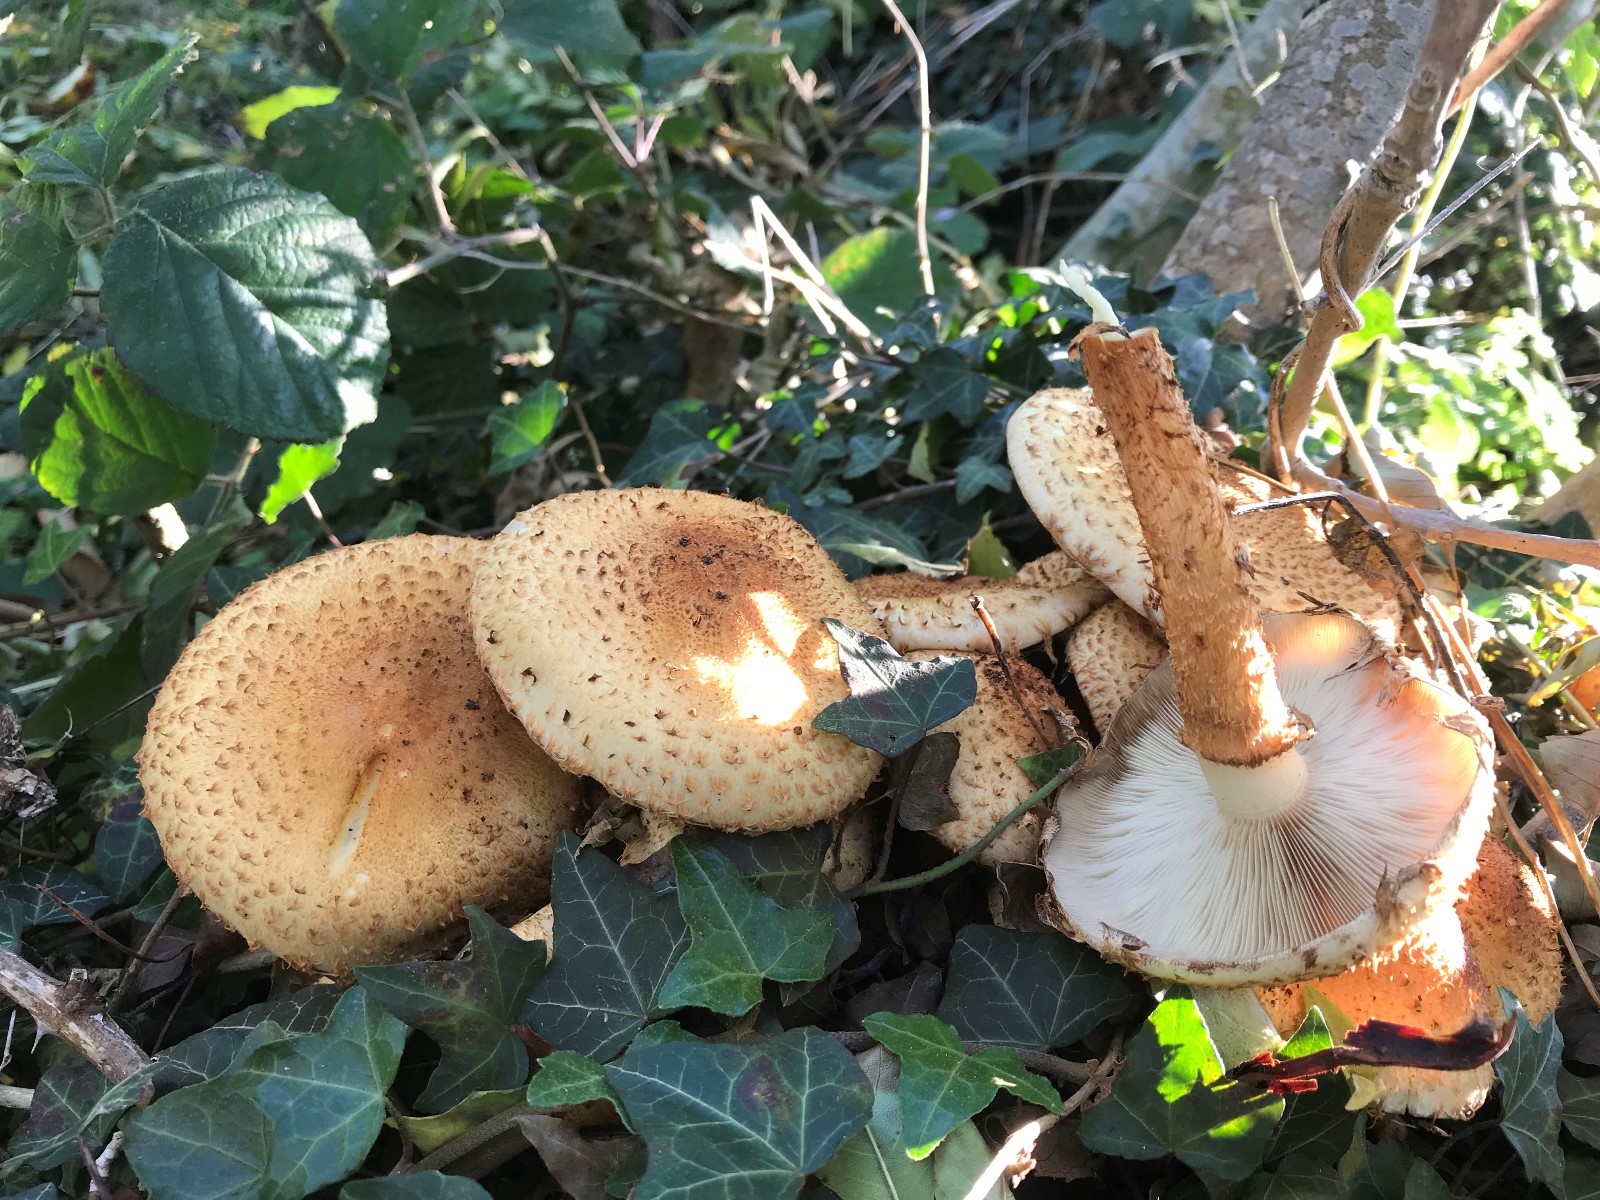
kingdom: Fungi
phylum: Basidiomycota
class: Agaricomycetes
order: Agaricales
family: Strophariaceae
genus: Pholiota
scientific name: Pholiota squarrosa
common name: krumskællet skælhat
